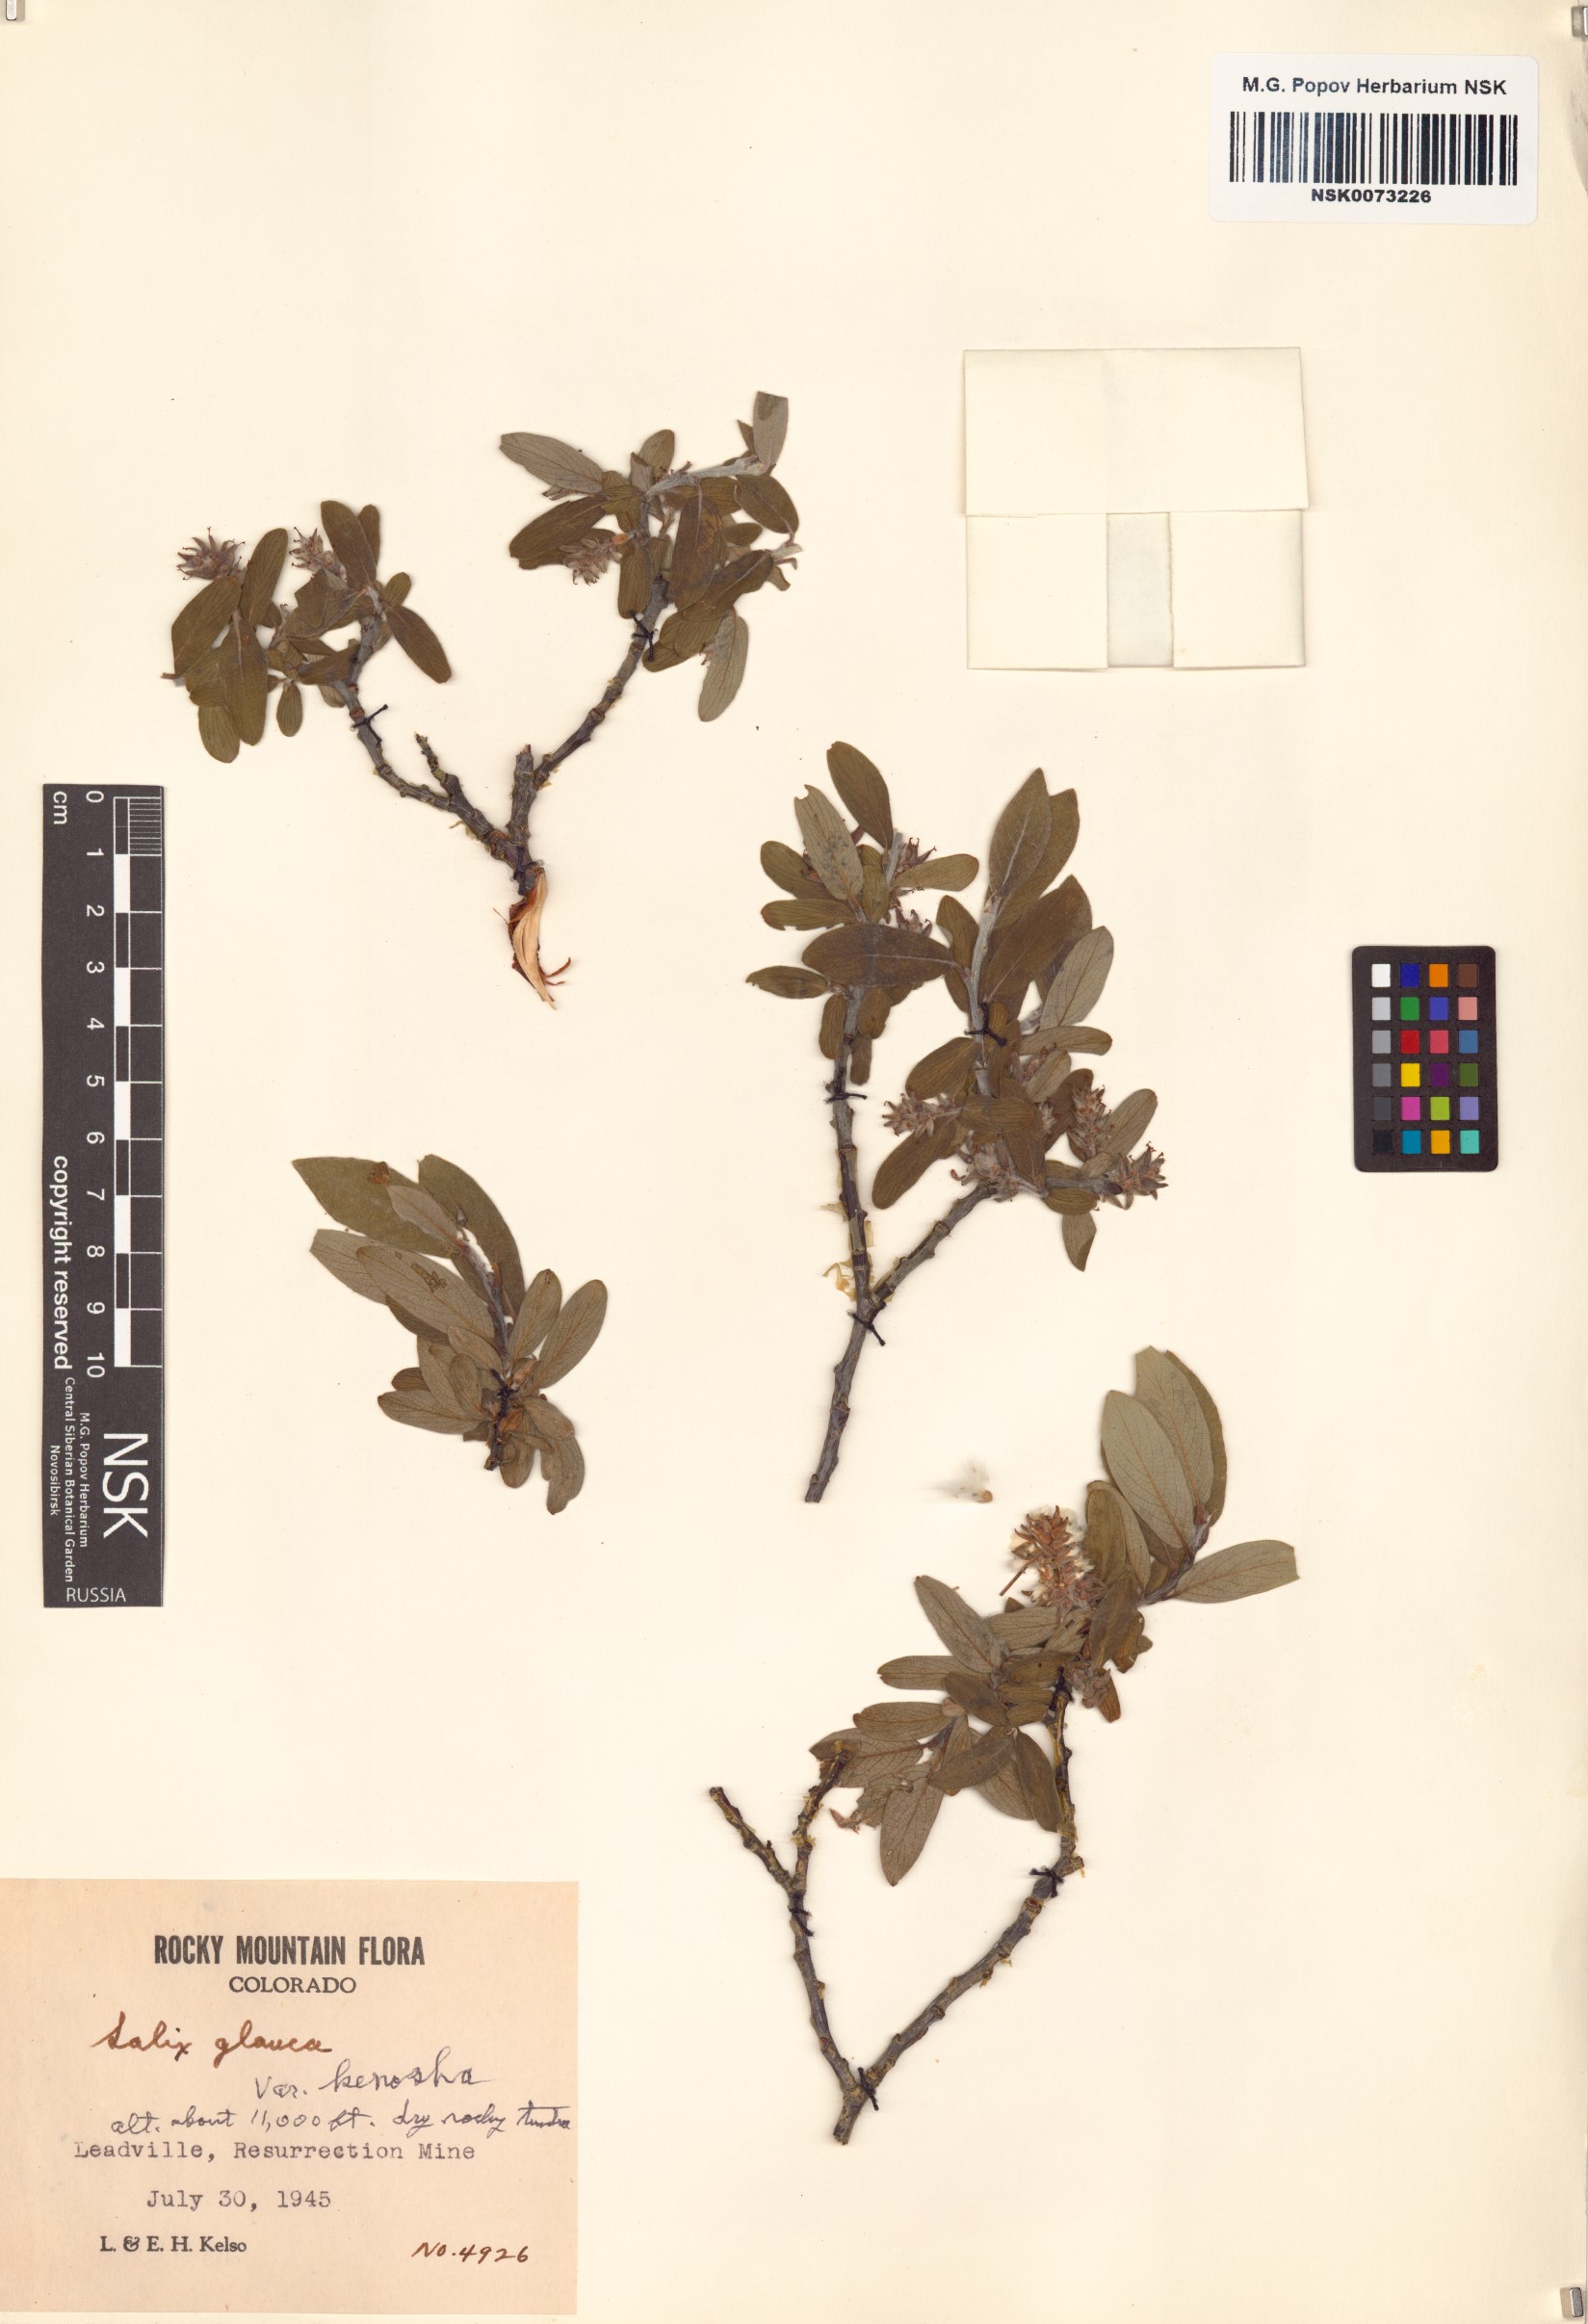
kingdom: Plantae
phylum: Tracheophyta
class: Magnoliopsida
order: Malpighiales
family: Salicaceae
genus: Salix
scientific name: Salix glauca
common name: Glaucous willow
